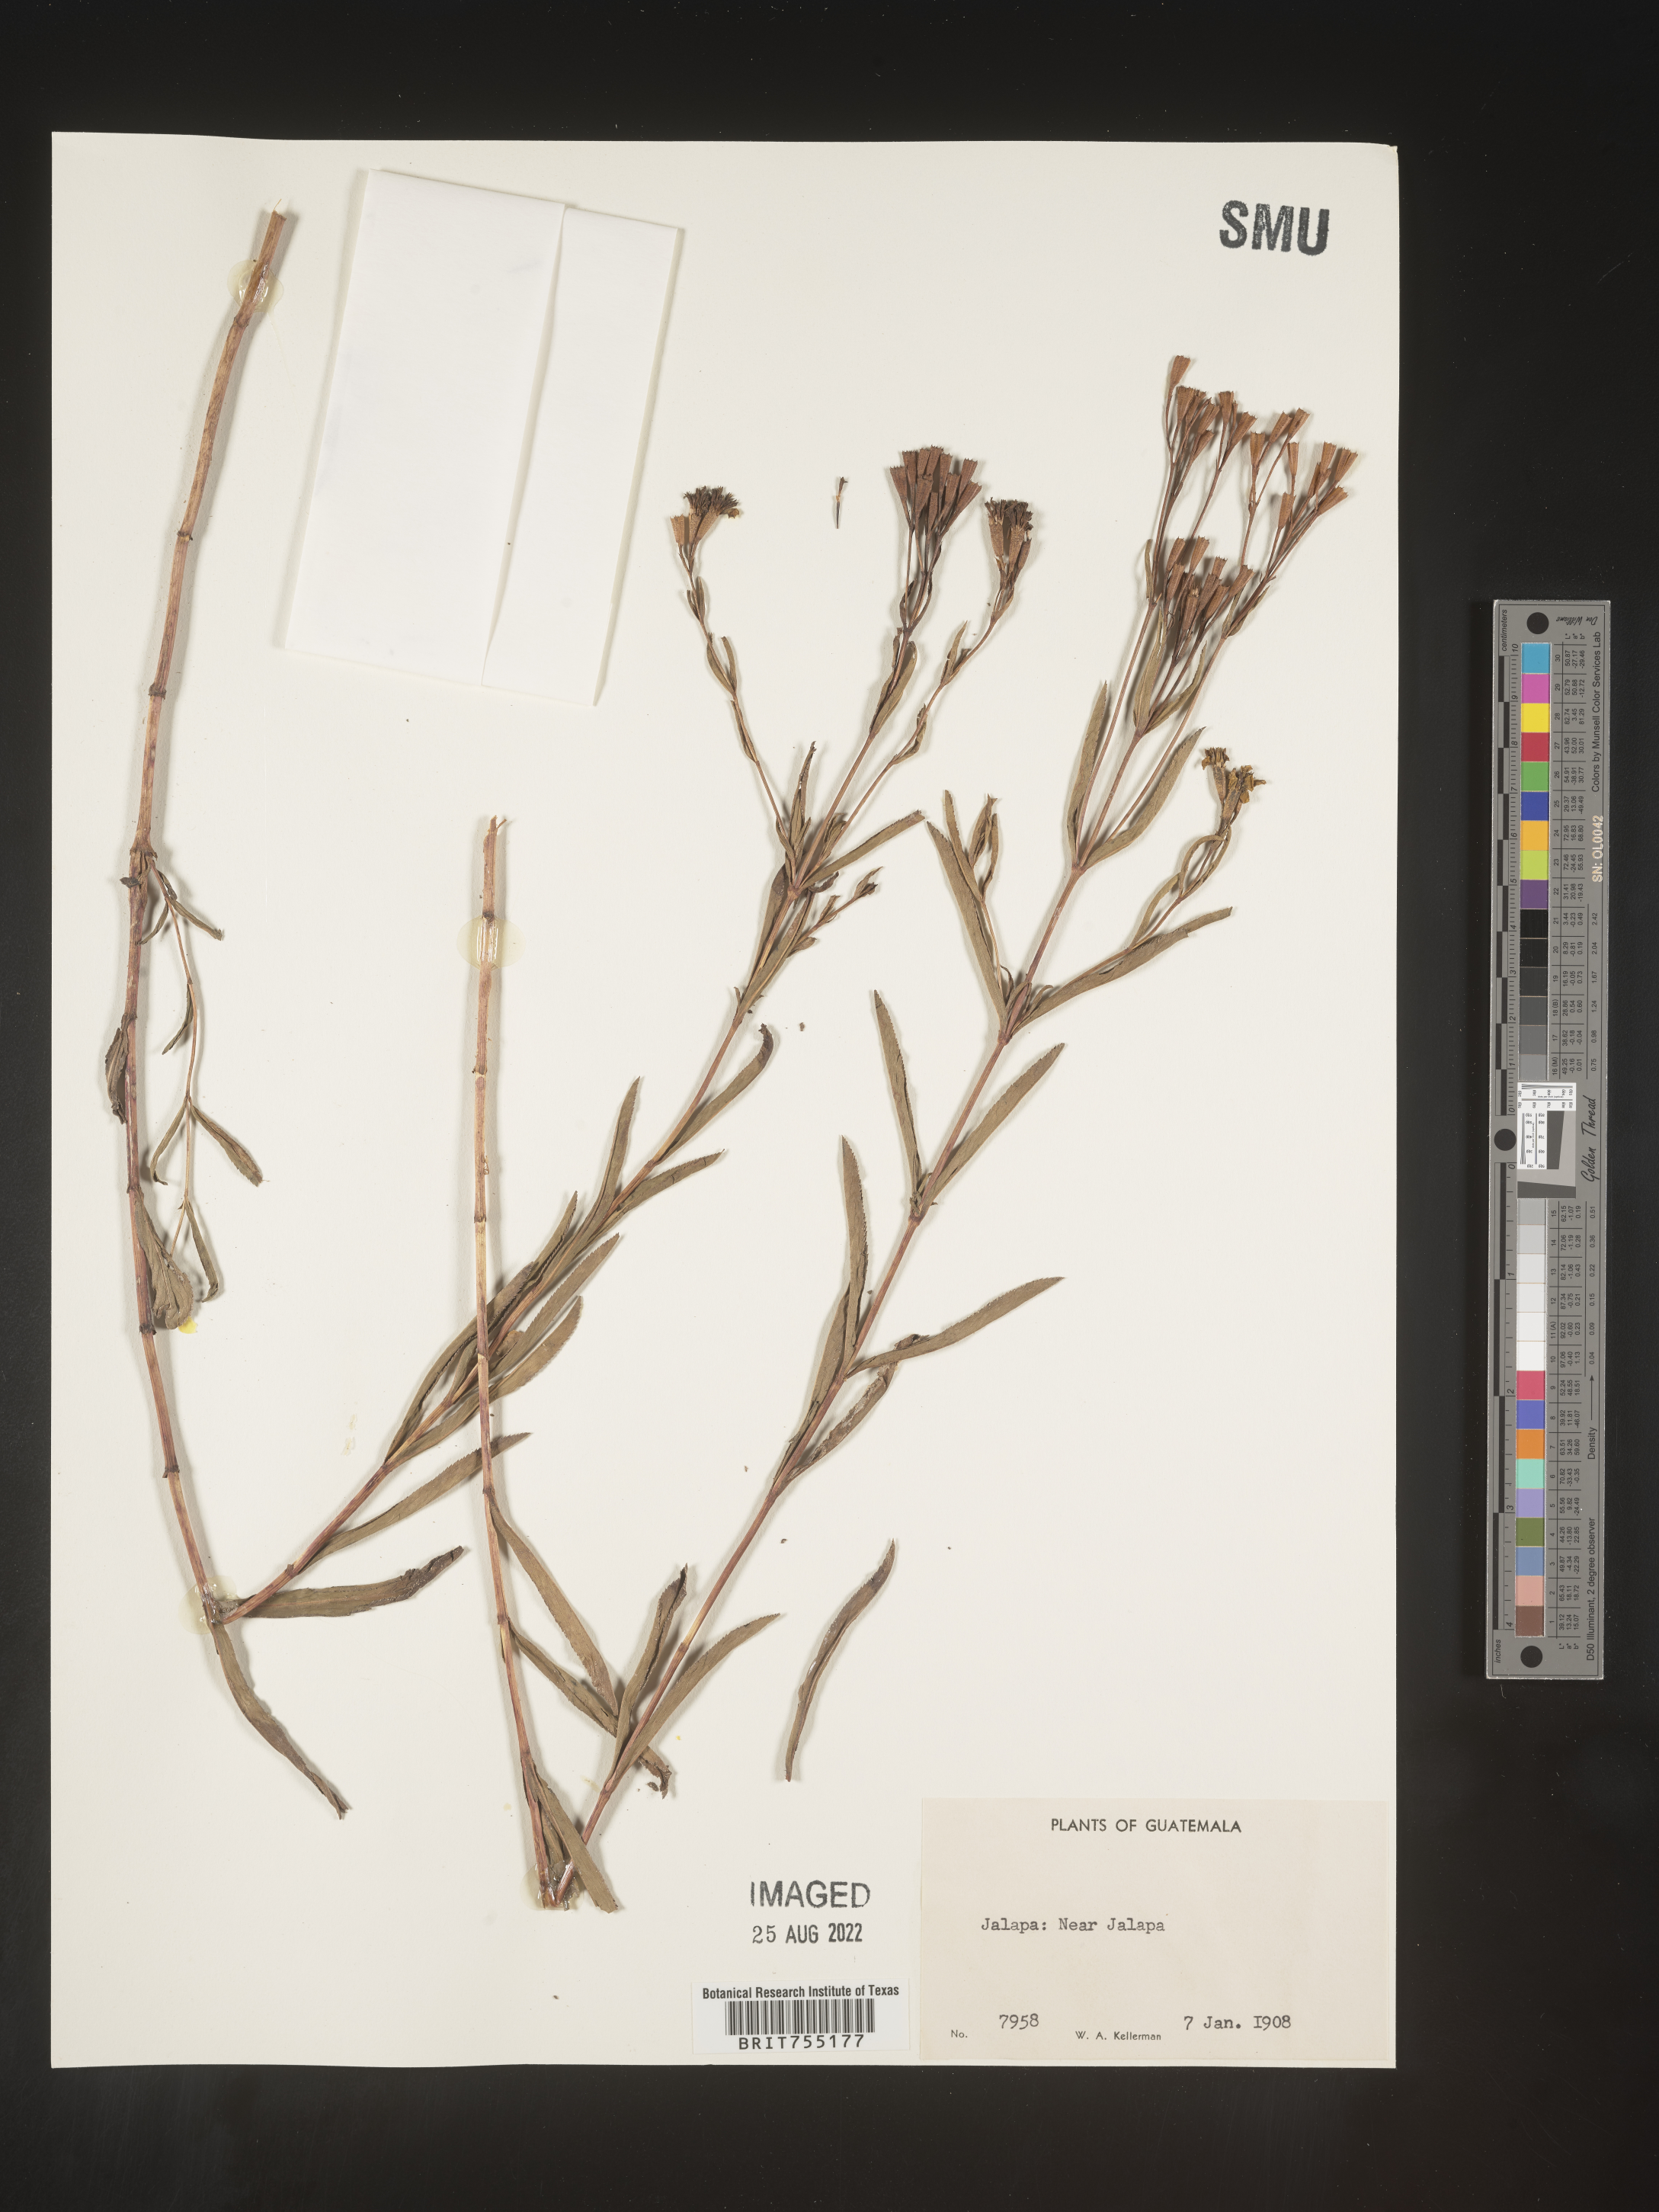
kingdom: Plantae
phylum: Tracheophyta
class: Magnoliopsida
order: Asterales
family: Asteraceae
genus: Tagetes
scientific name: Tagetes
